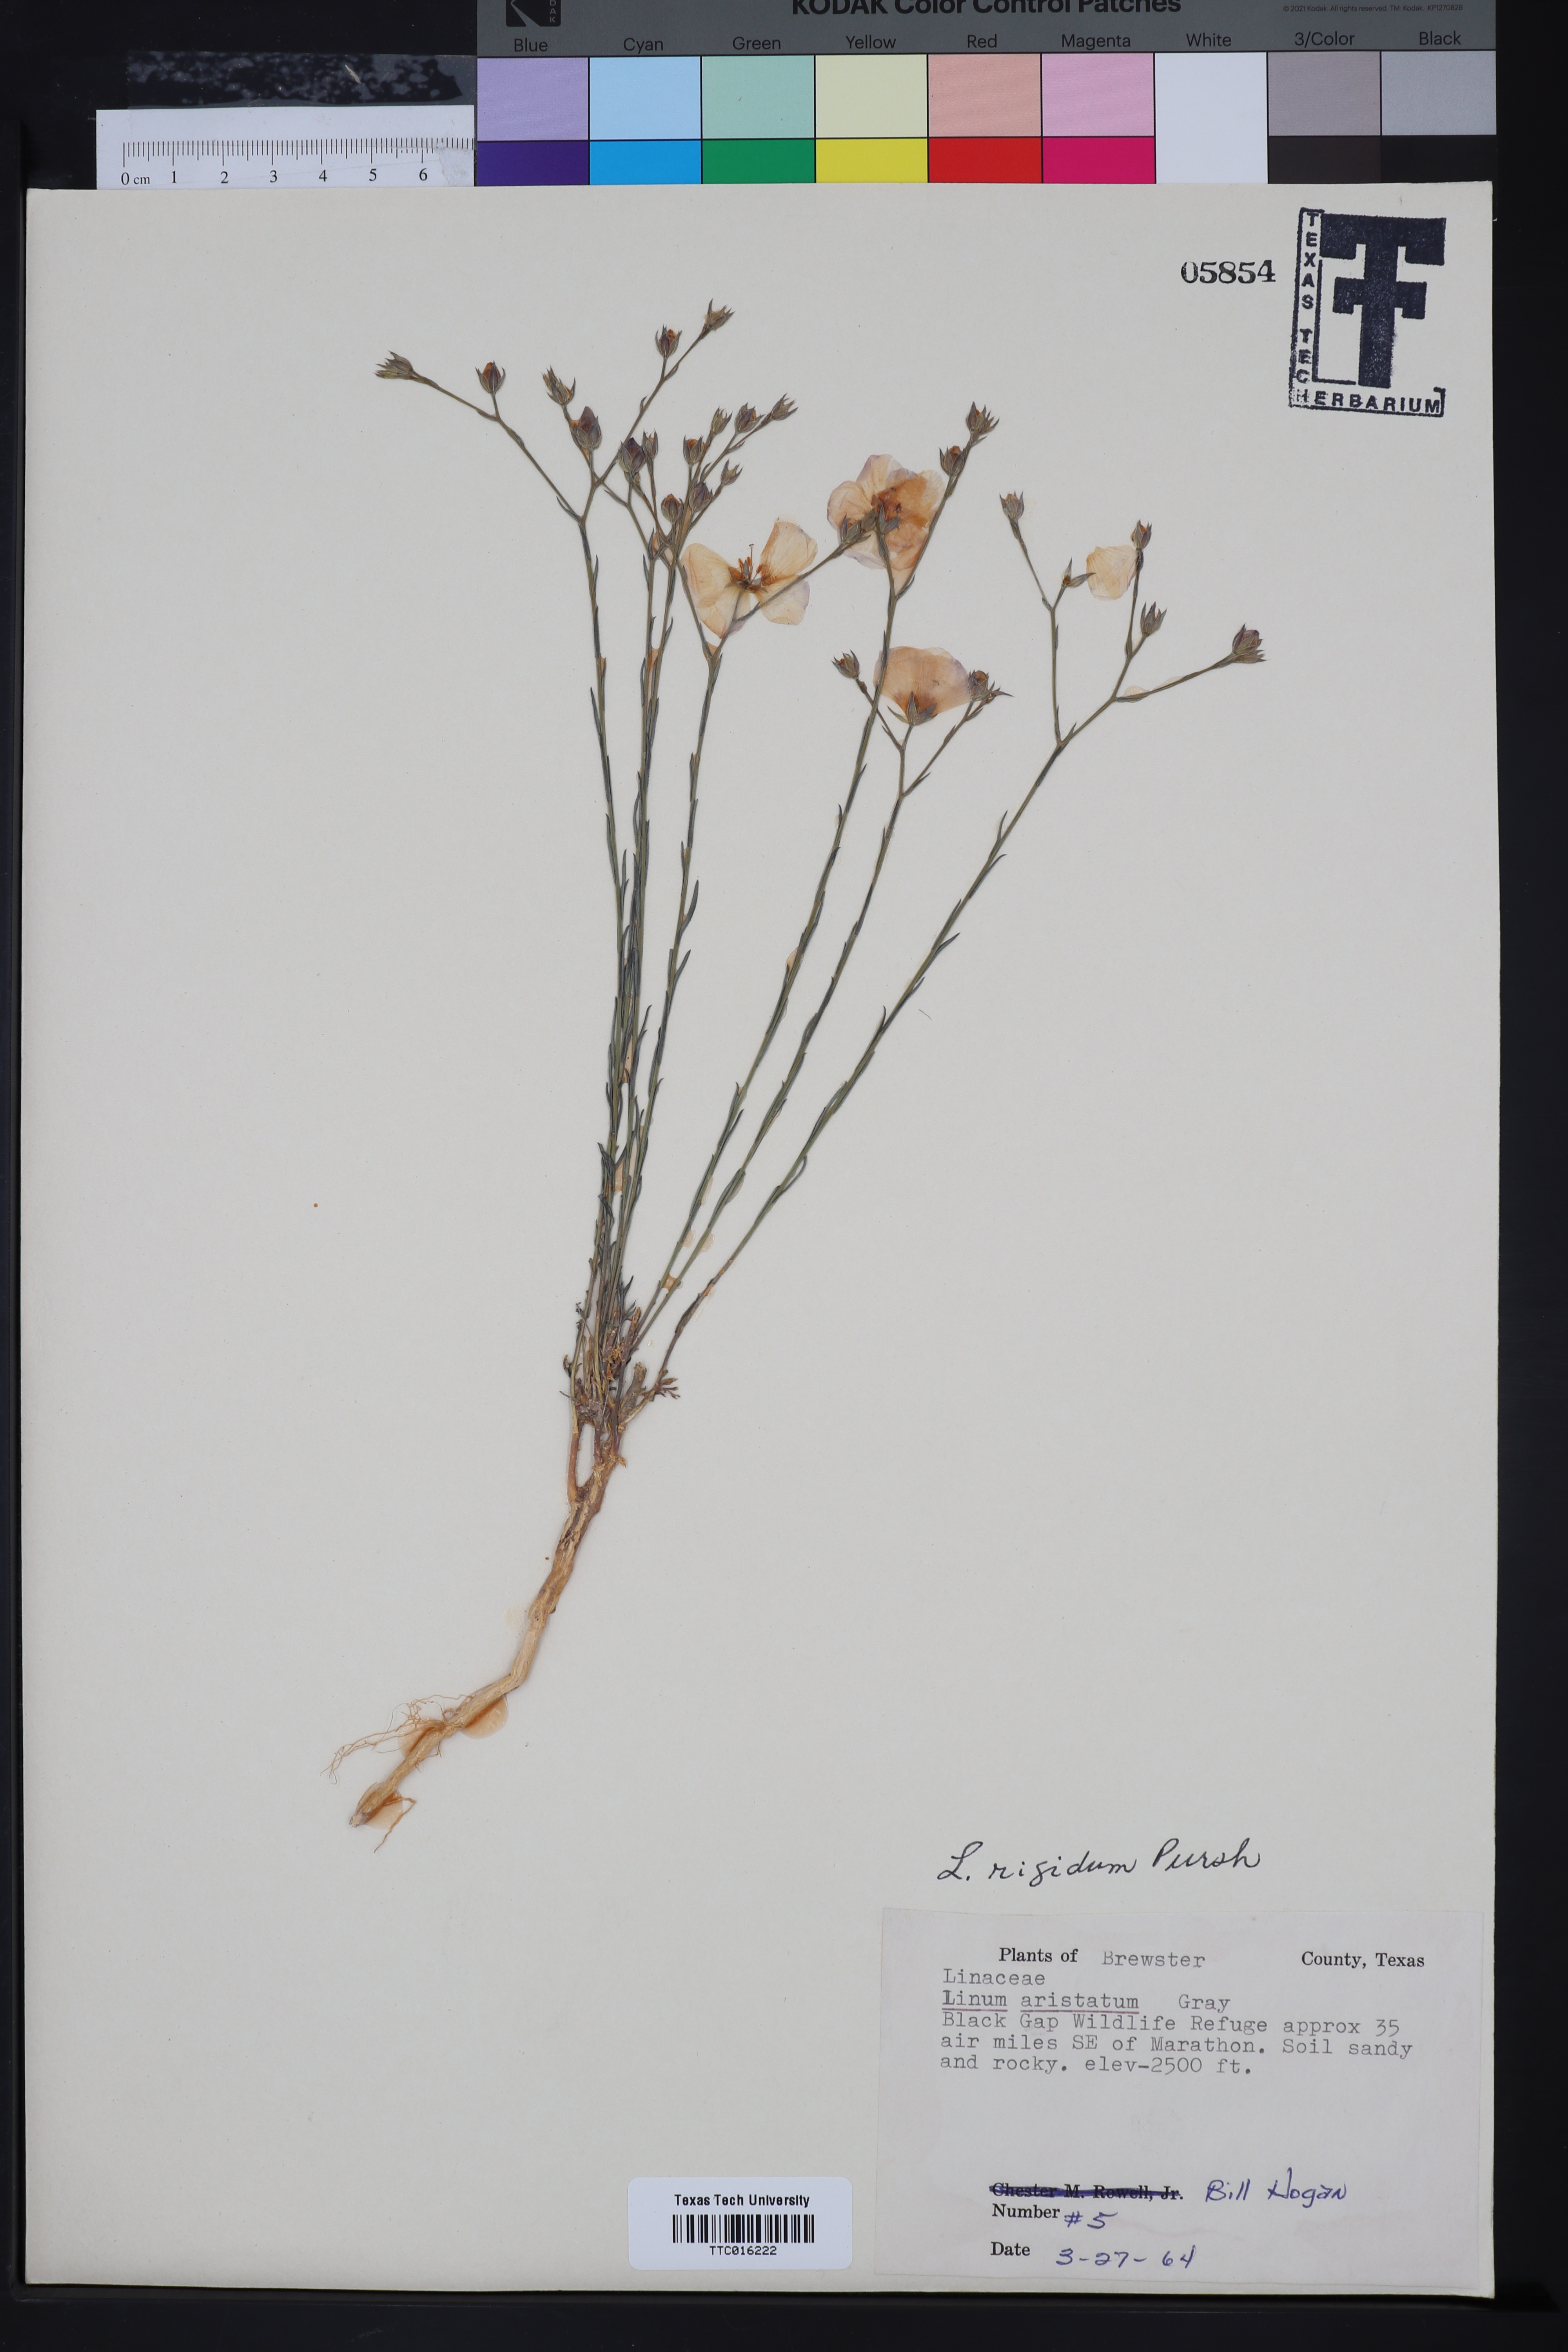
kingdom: Plantae
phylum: Tracheophyta
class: Magnoliopsida
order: Malpighiales
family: Linaceae
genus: Linum
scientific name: Linum rigidum
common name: Stiff-stem flax
